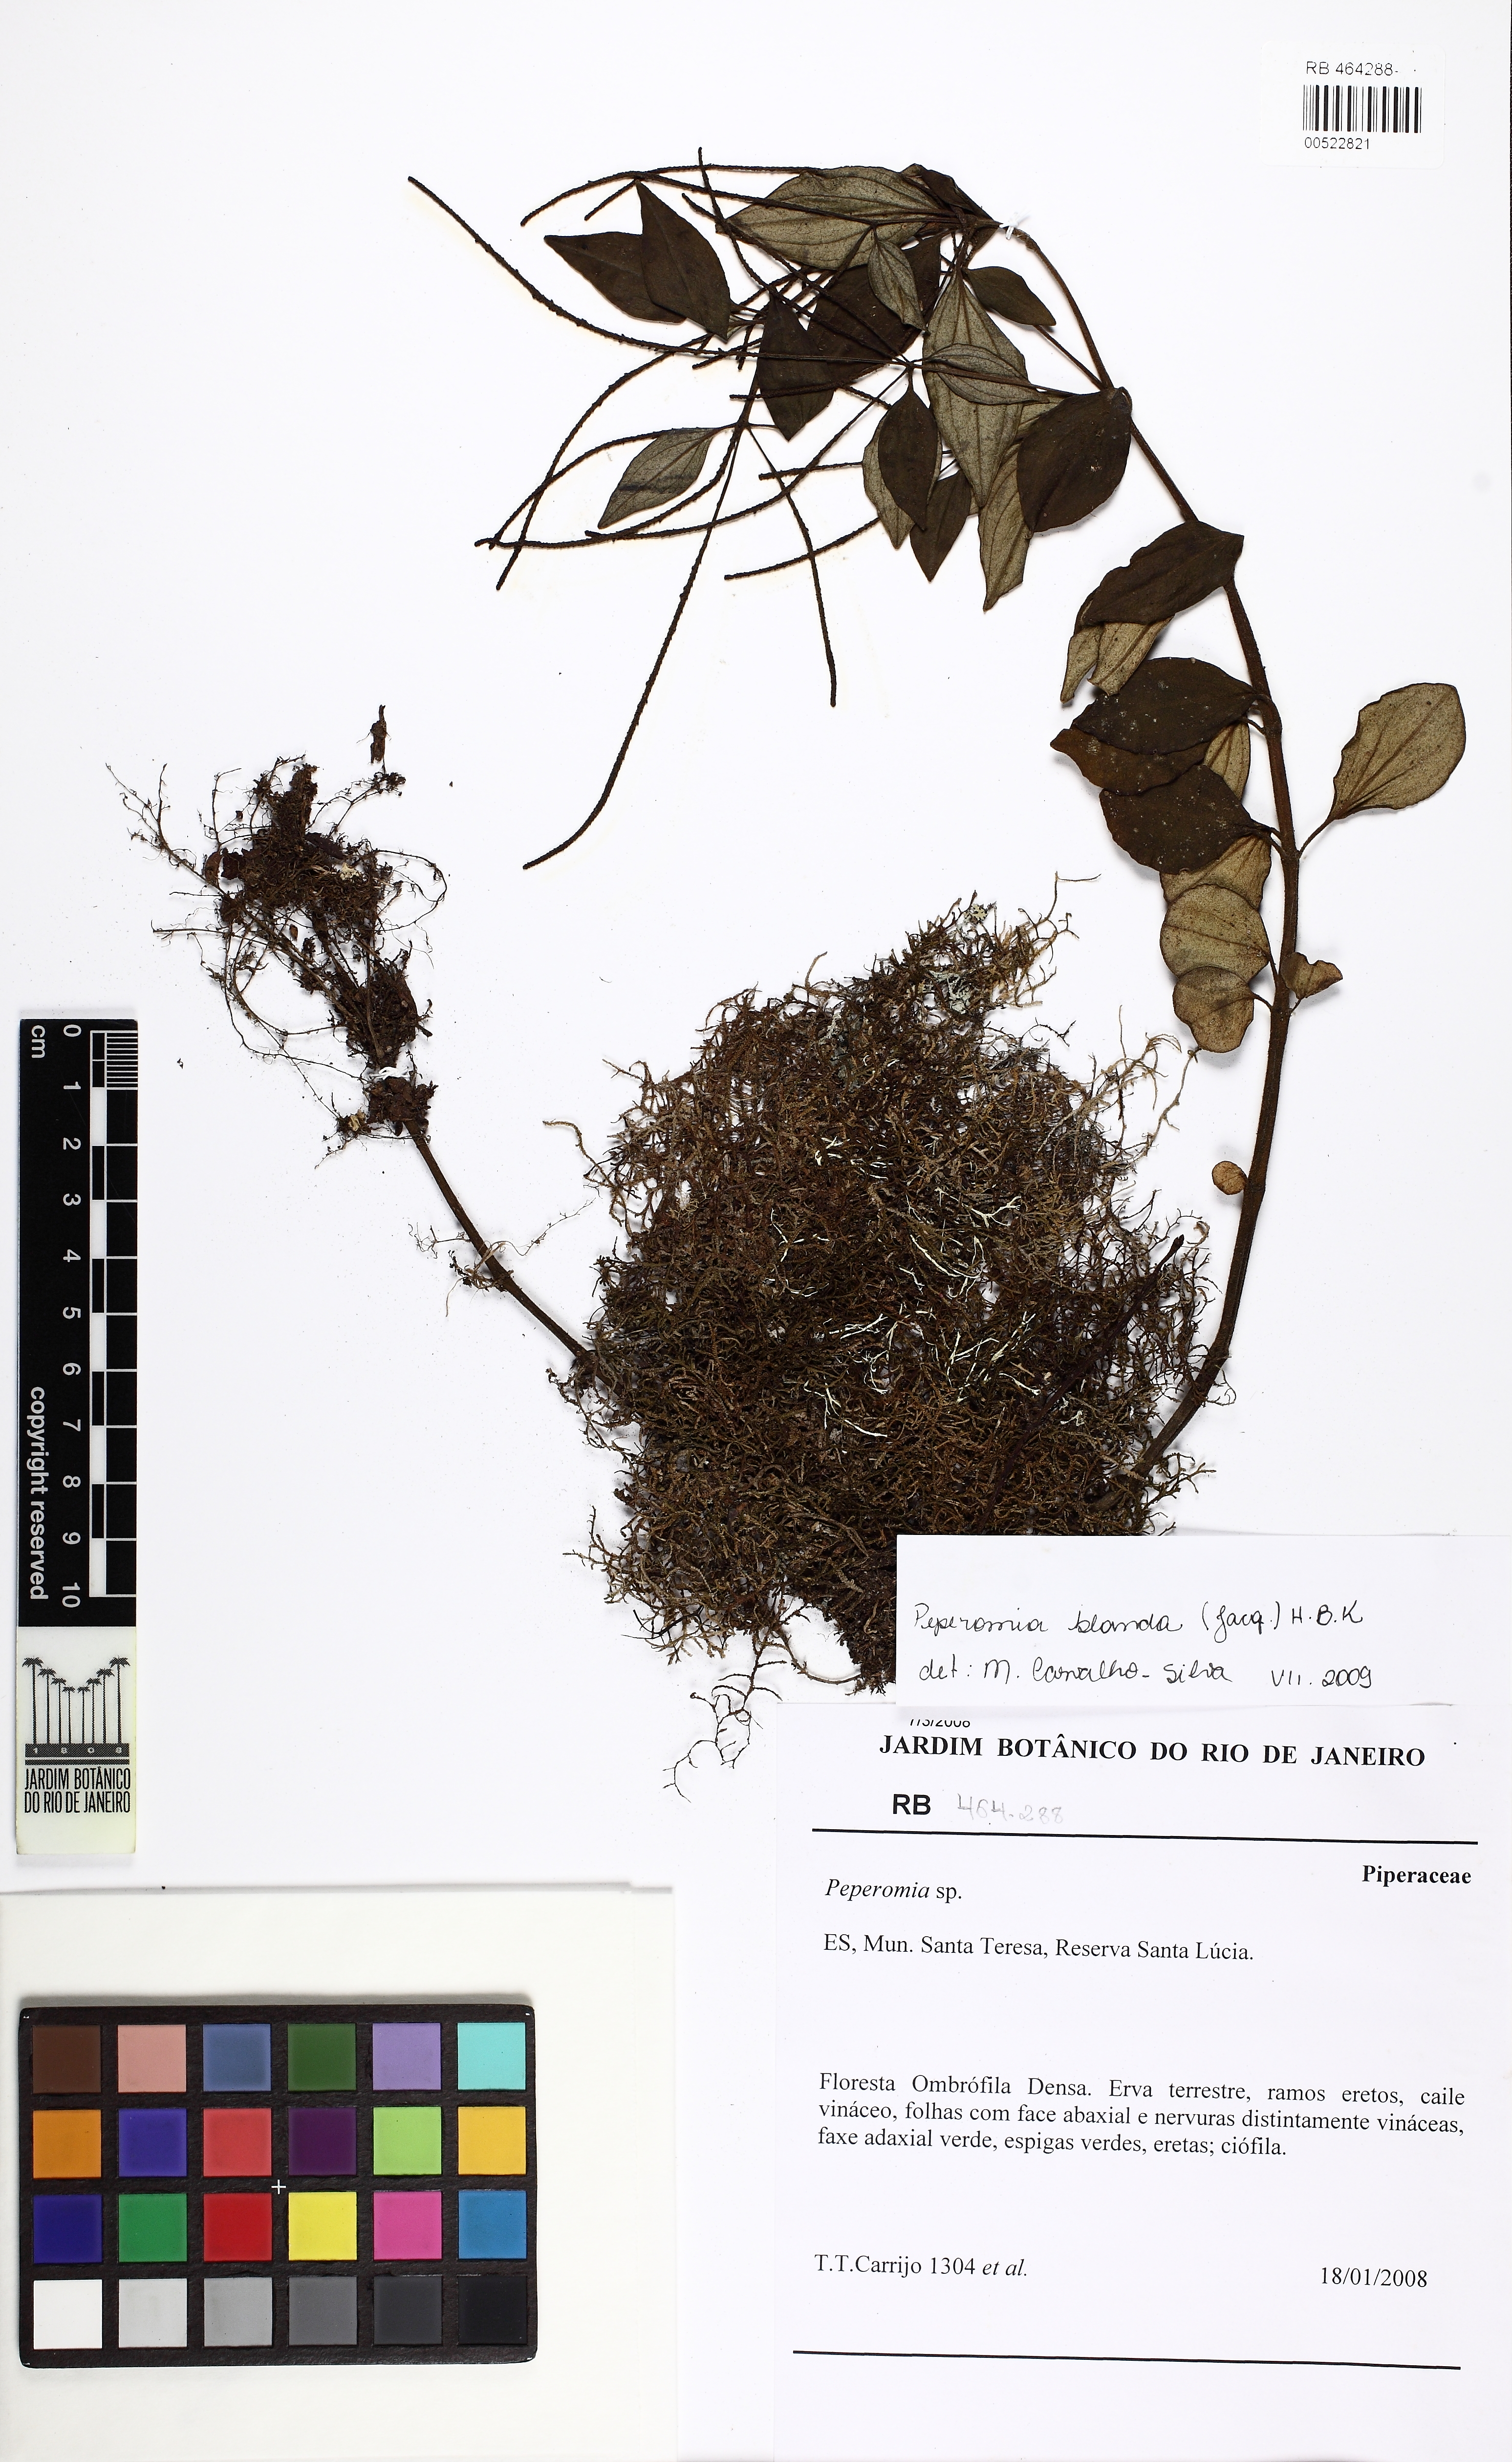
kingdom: Plantae
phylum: Tracheophyta
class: Magnoliopsida
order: Piperales
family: Piperaceae
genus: Peperomia
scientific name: Peperomia blanda
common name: Arid-land peperomia
